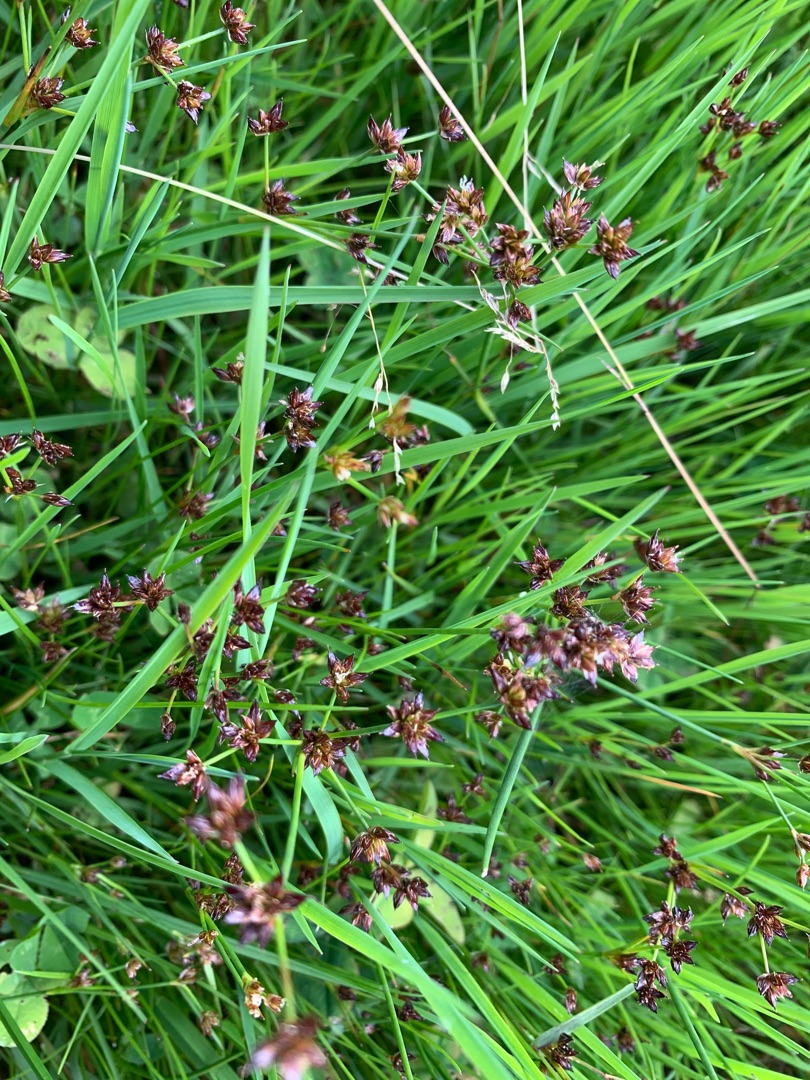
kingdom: Plantae
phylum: Tracheophyta
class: Liliopsida
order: Poales
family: Juncaceae
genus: Juncus
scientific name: Juncus articulatus
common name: Glanskapslet siv
